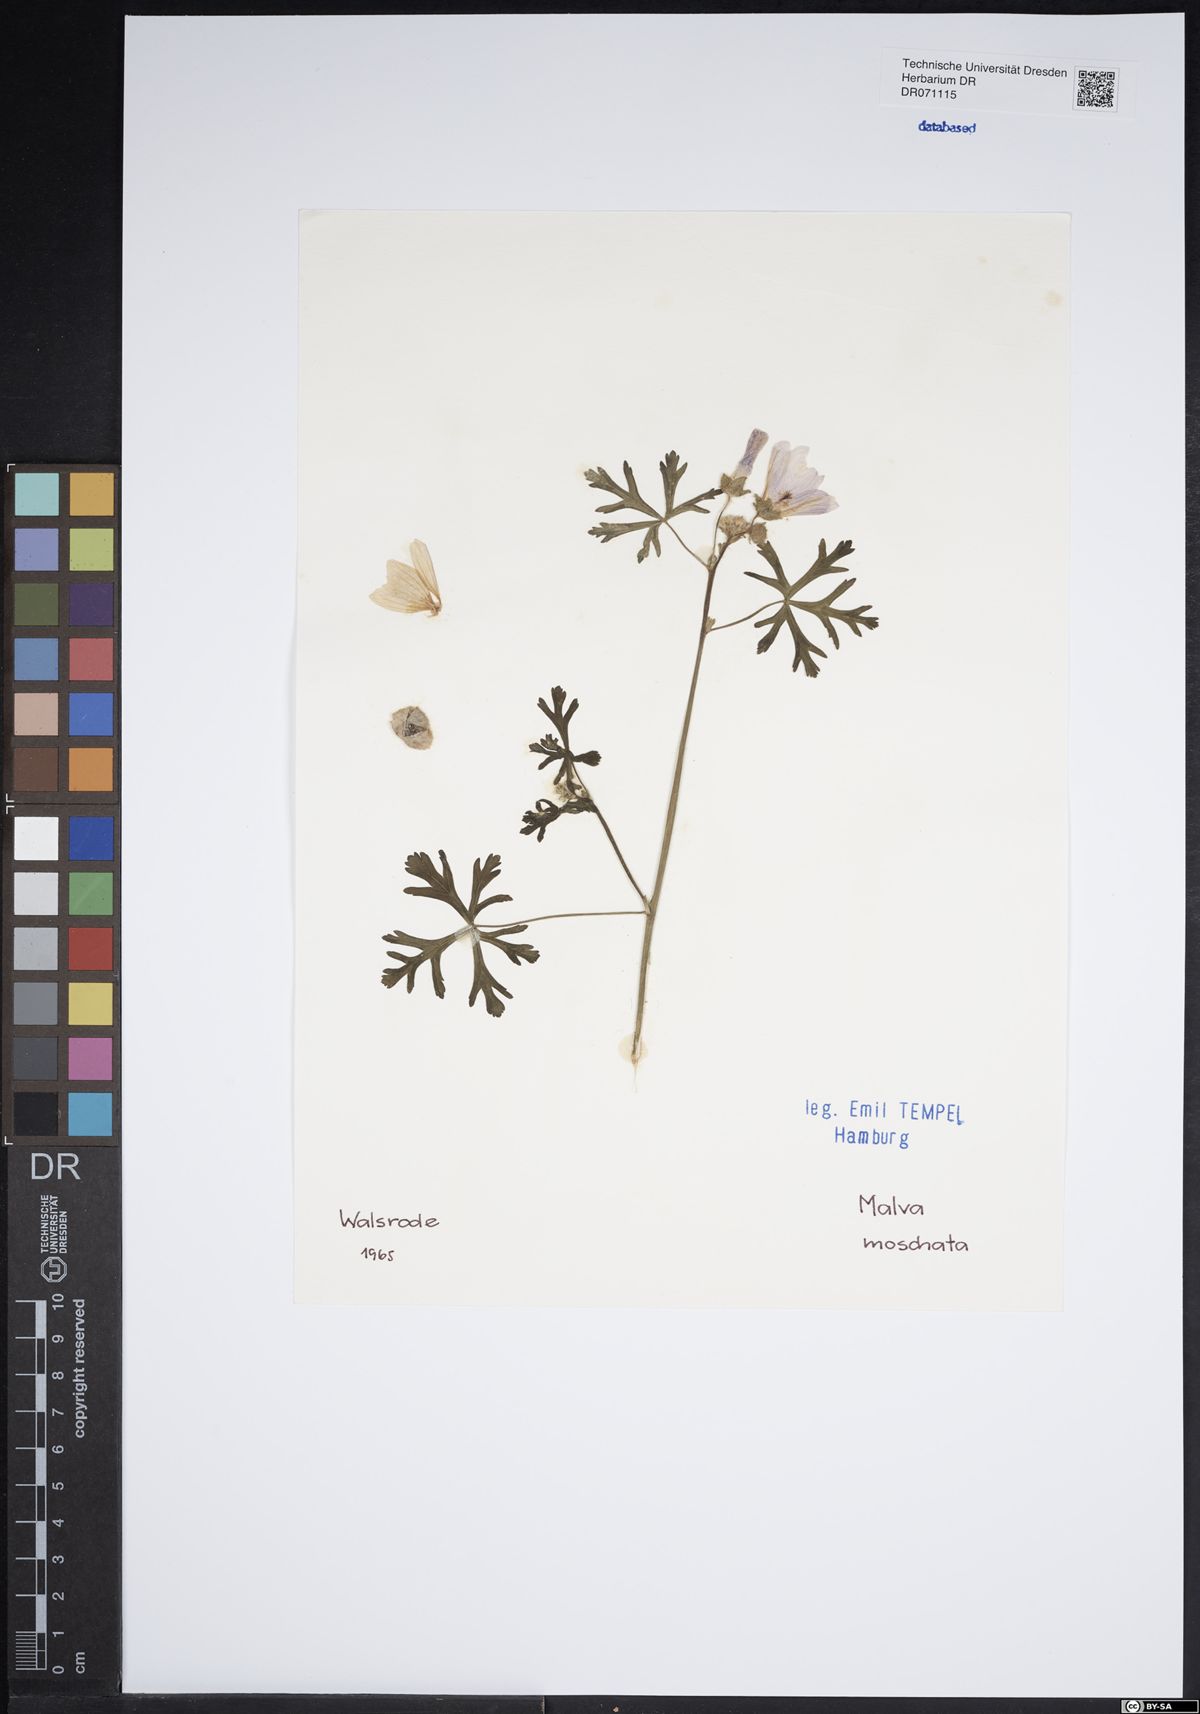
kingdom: Plantae
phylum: Tracheophyta
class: Magnoliopsida
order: Malvales
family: Malvaceae
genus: Malva
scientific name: Malva moschata
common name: Musk mallow
